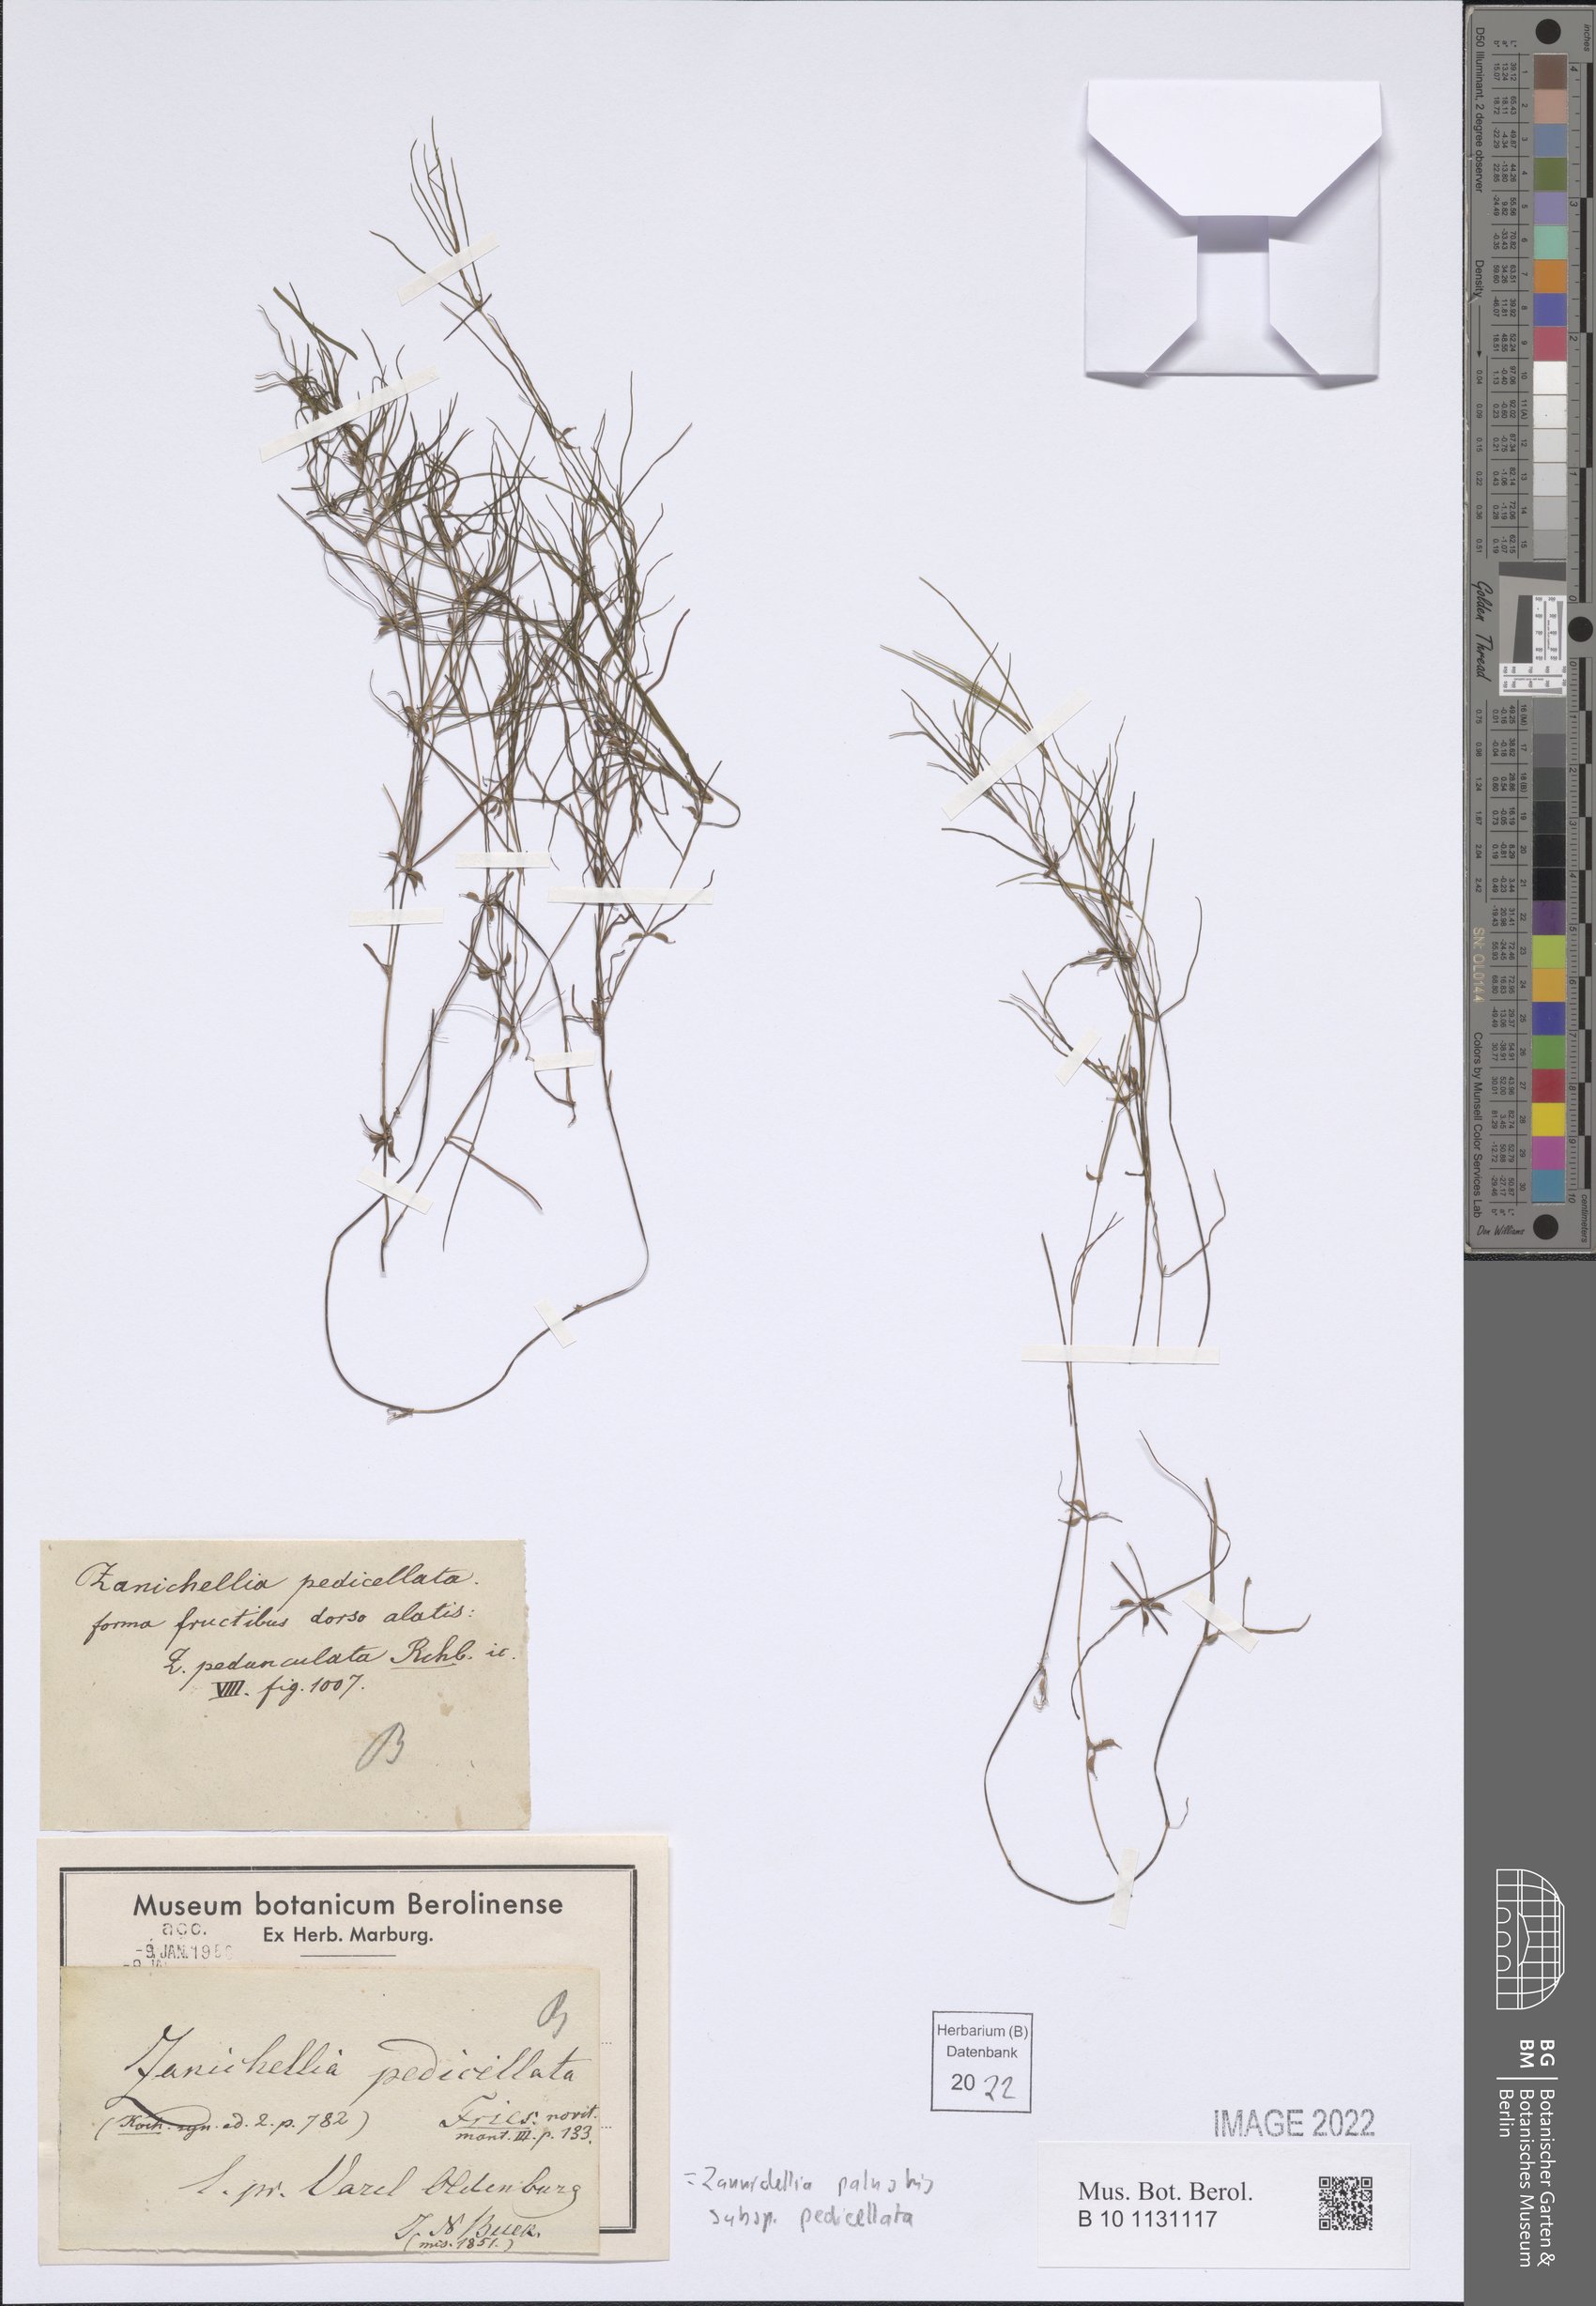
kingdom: Plantae
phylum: Tracheophyta
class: Liliopsida
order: Alismatales
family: Potamogetonaceae
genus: Zannichellia
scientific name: Zannichellia palustris
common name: Horned pondweed
